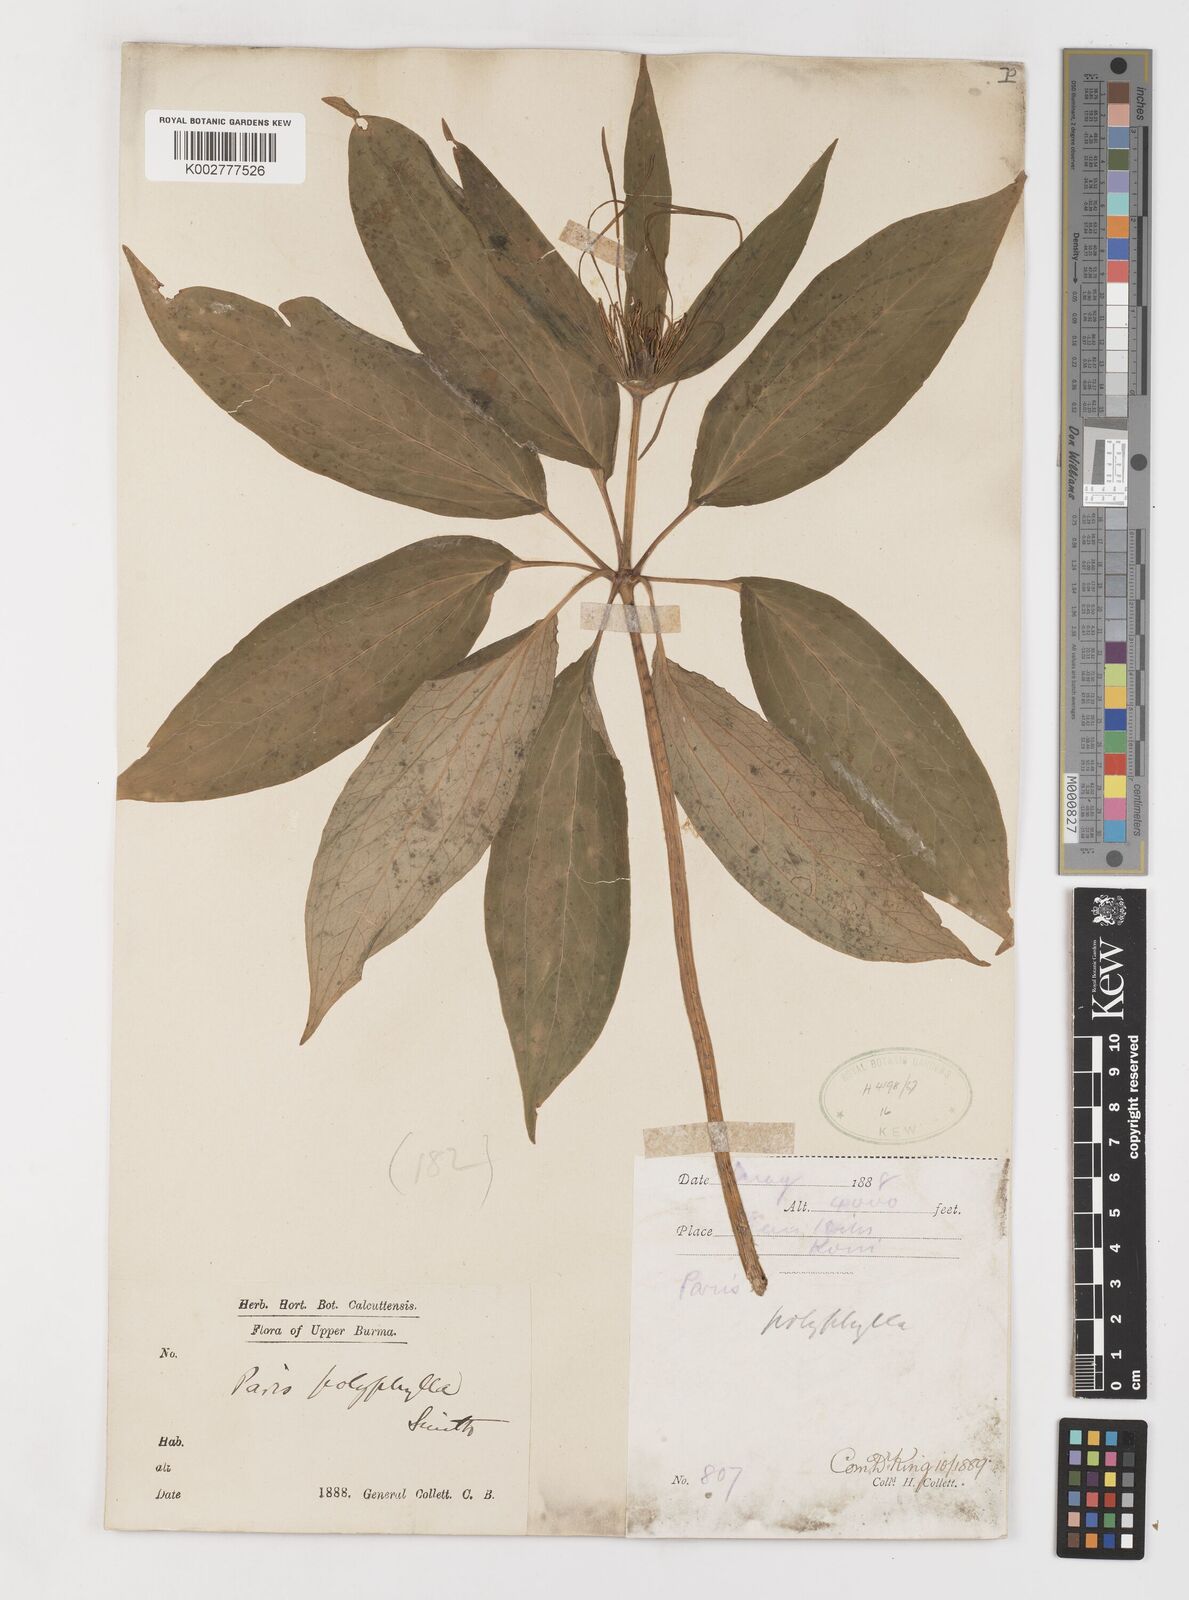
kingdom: Plantae
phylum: Tracheophyta
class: Liliopsida
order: Liliales
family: Melanthiaceae
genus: Paris
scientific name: Paris yunnanensis
